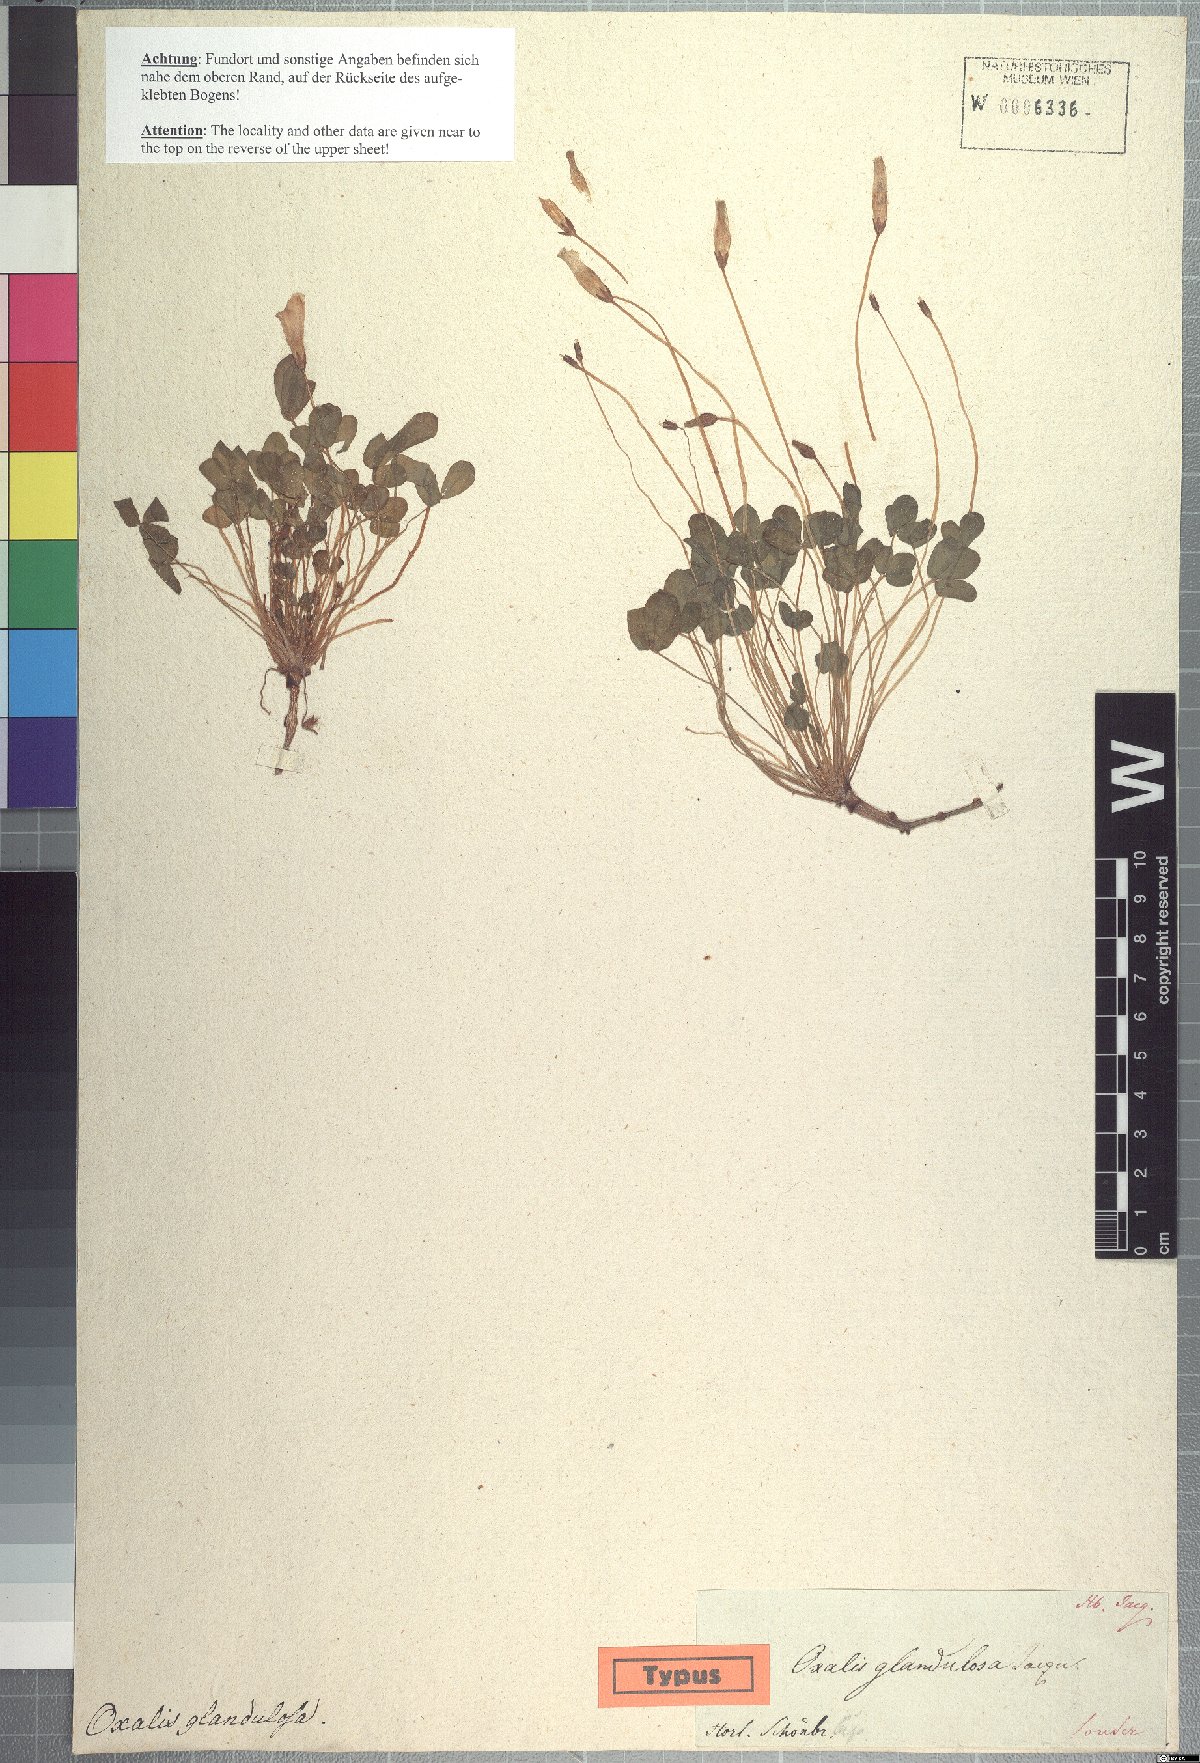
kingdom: Plantae
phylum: Tracheophyta
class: Magnoliopsida
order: Oxalidales
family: Oxalidaceae
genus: Oxalis
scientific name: Oxalis recticaulis
